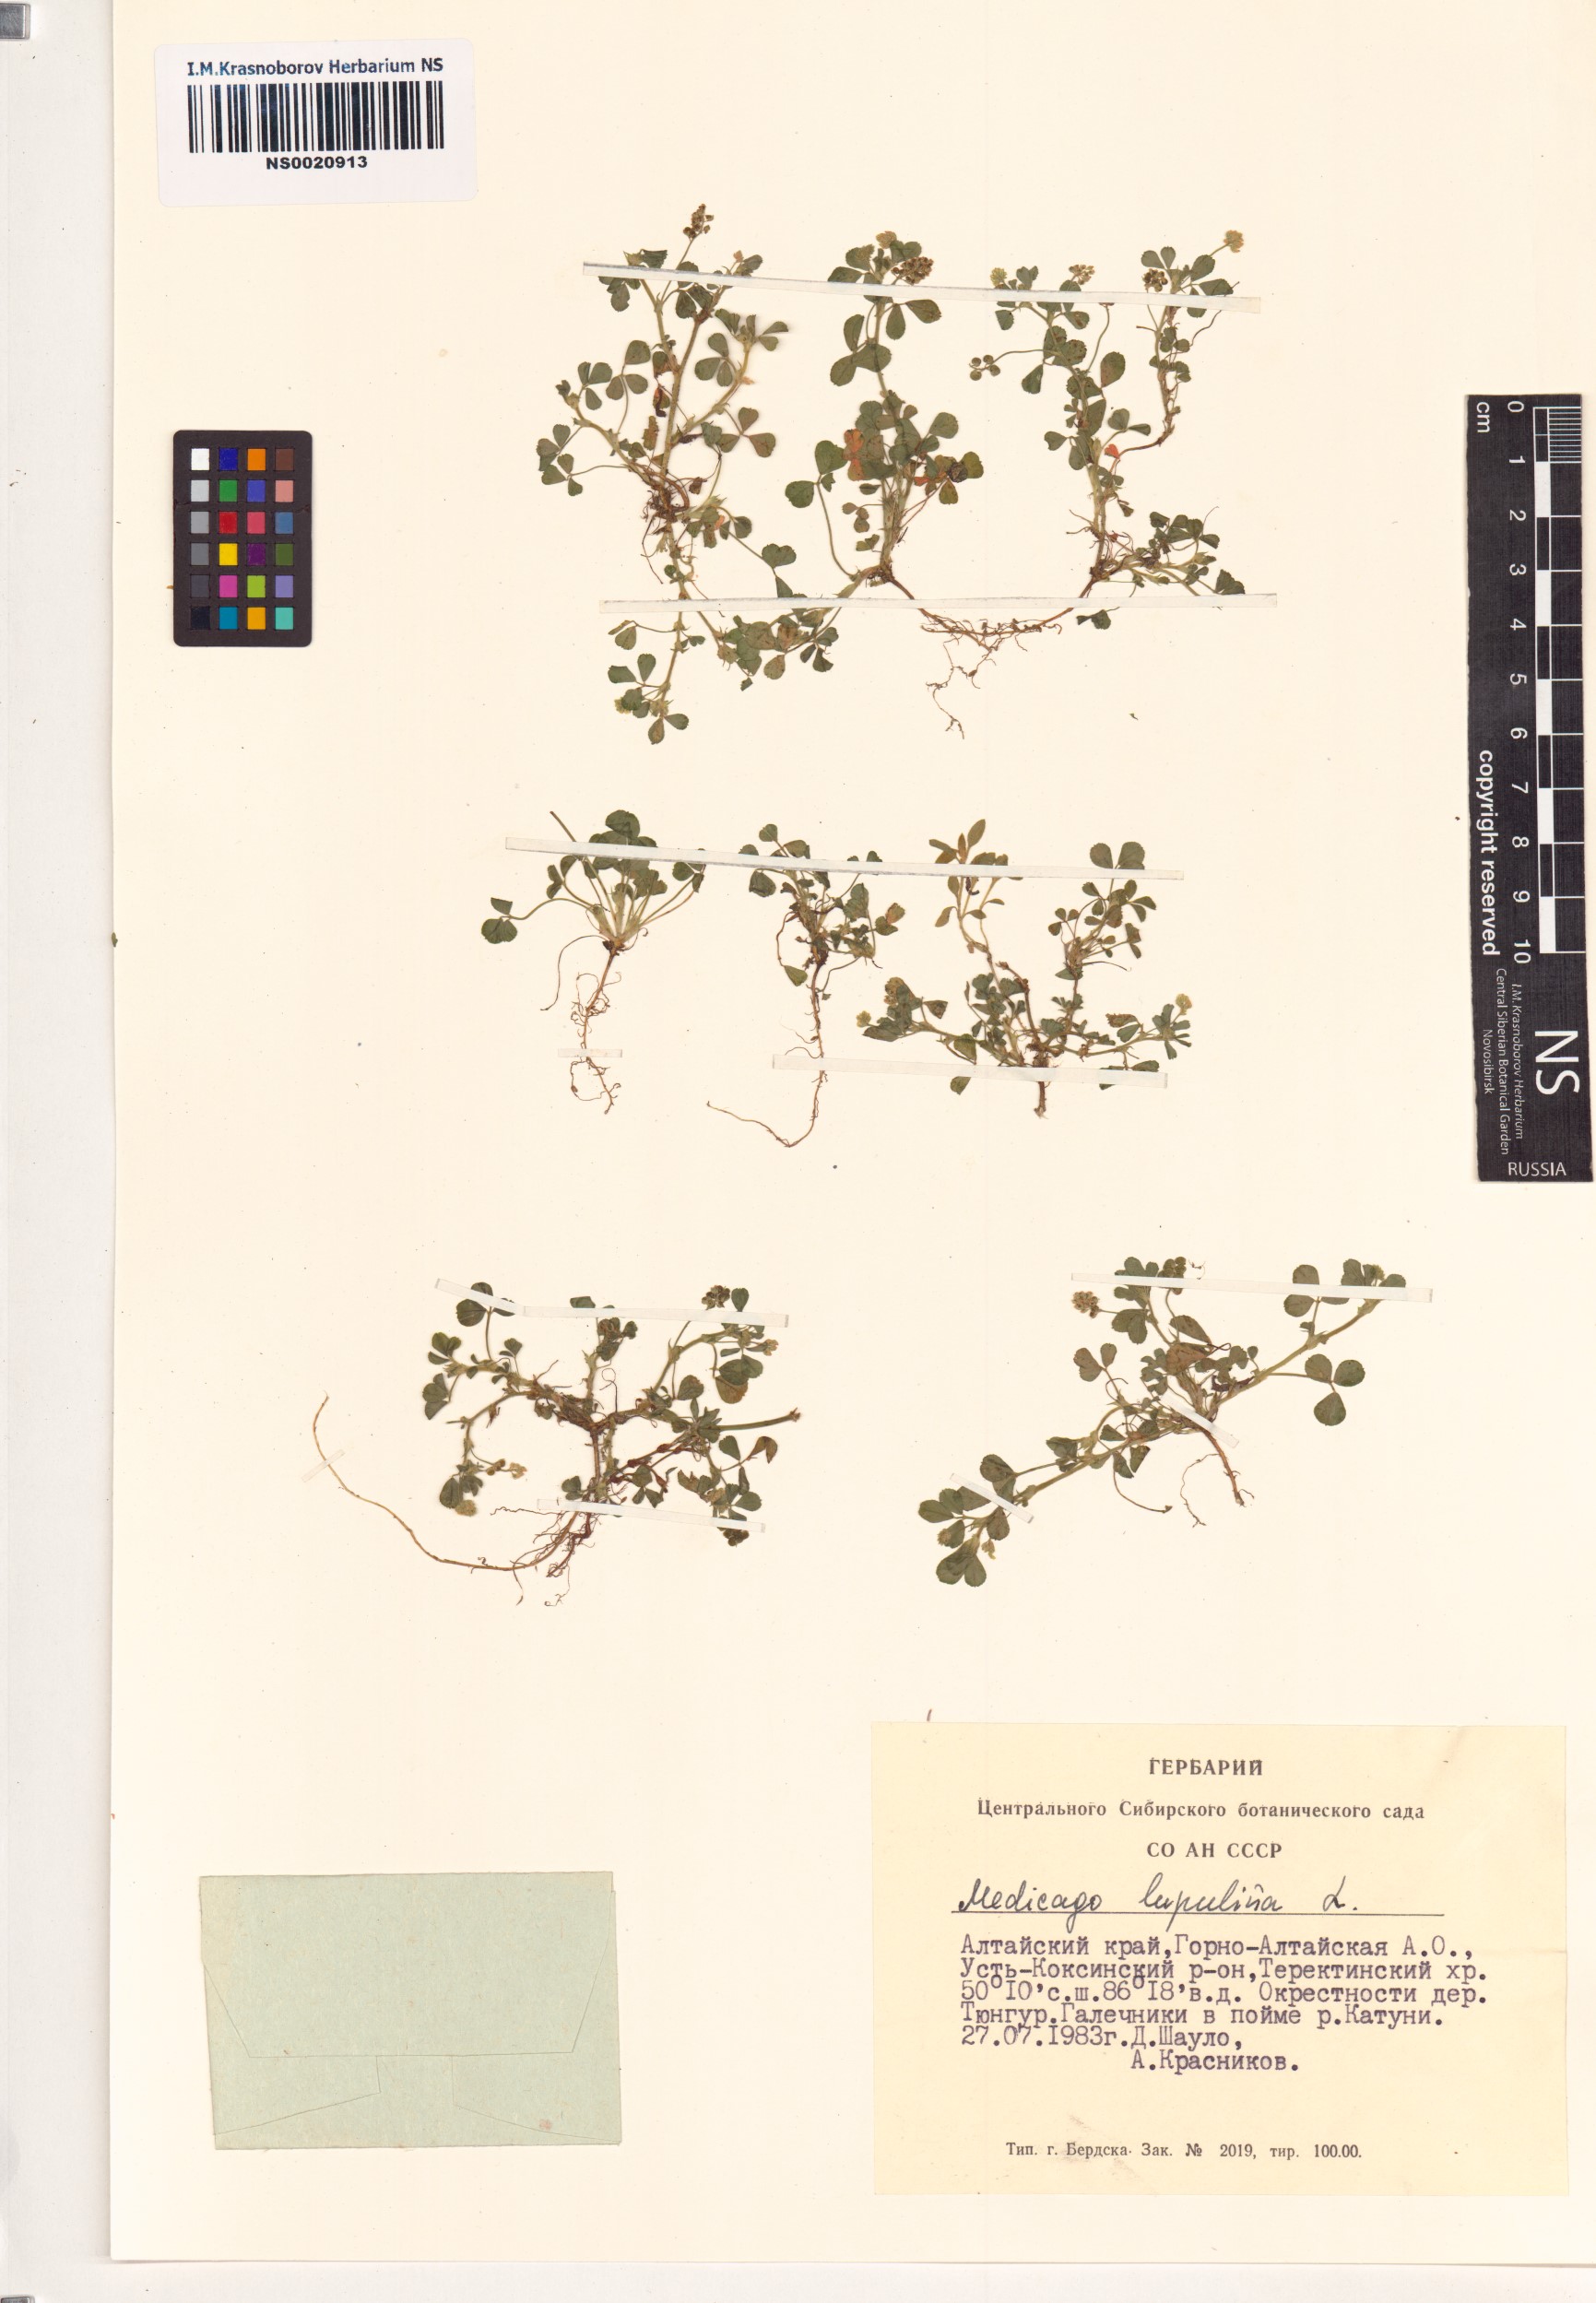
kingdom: Plantae
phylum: Tracheophyta
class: Magnoliopsida
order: Fabales
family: Fabaceae
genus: Medicago
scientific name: Medicago lupulina
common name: Black medick
